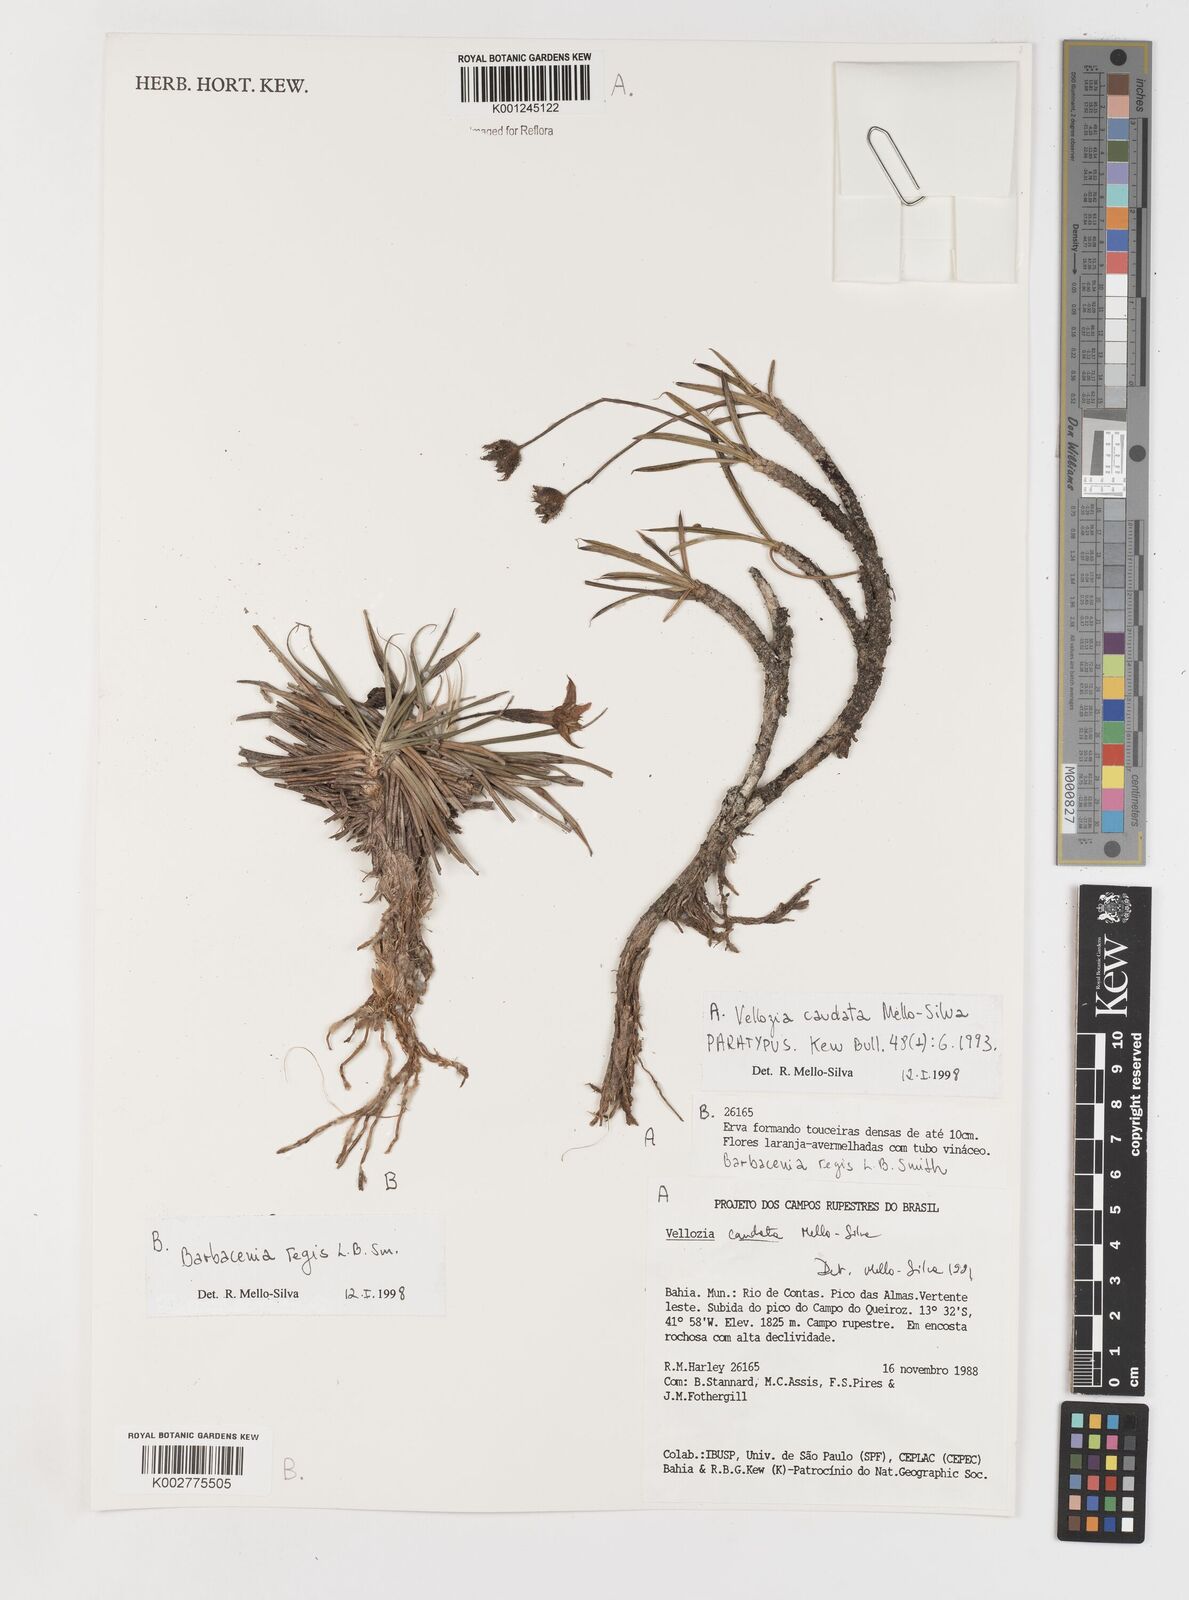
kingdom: Plantae
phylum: Tracheophyta
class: Liliopsida
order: Pandanales
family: Velloziaceae
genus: Vellozia
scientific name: Vellozia caudata
